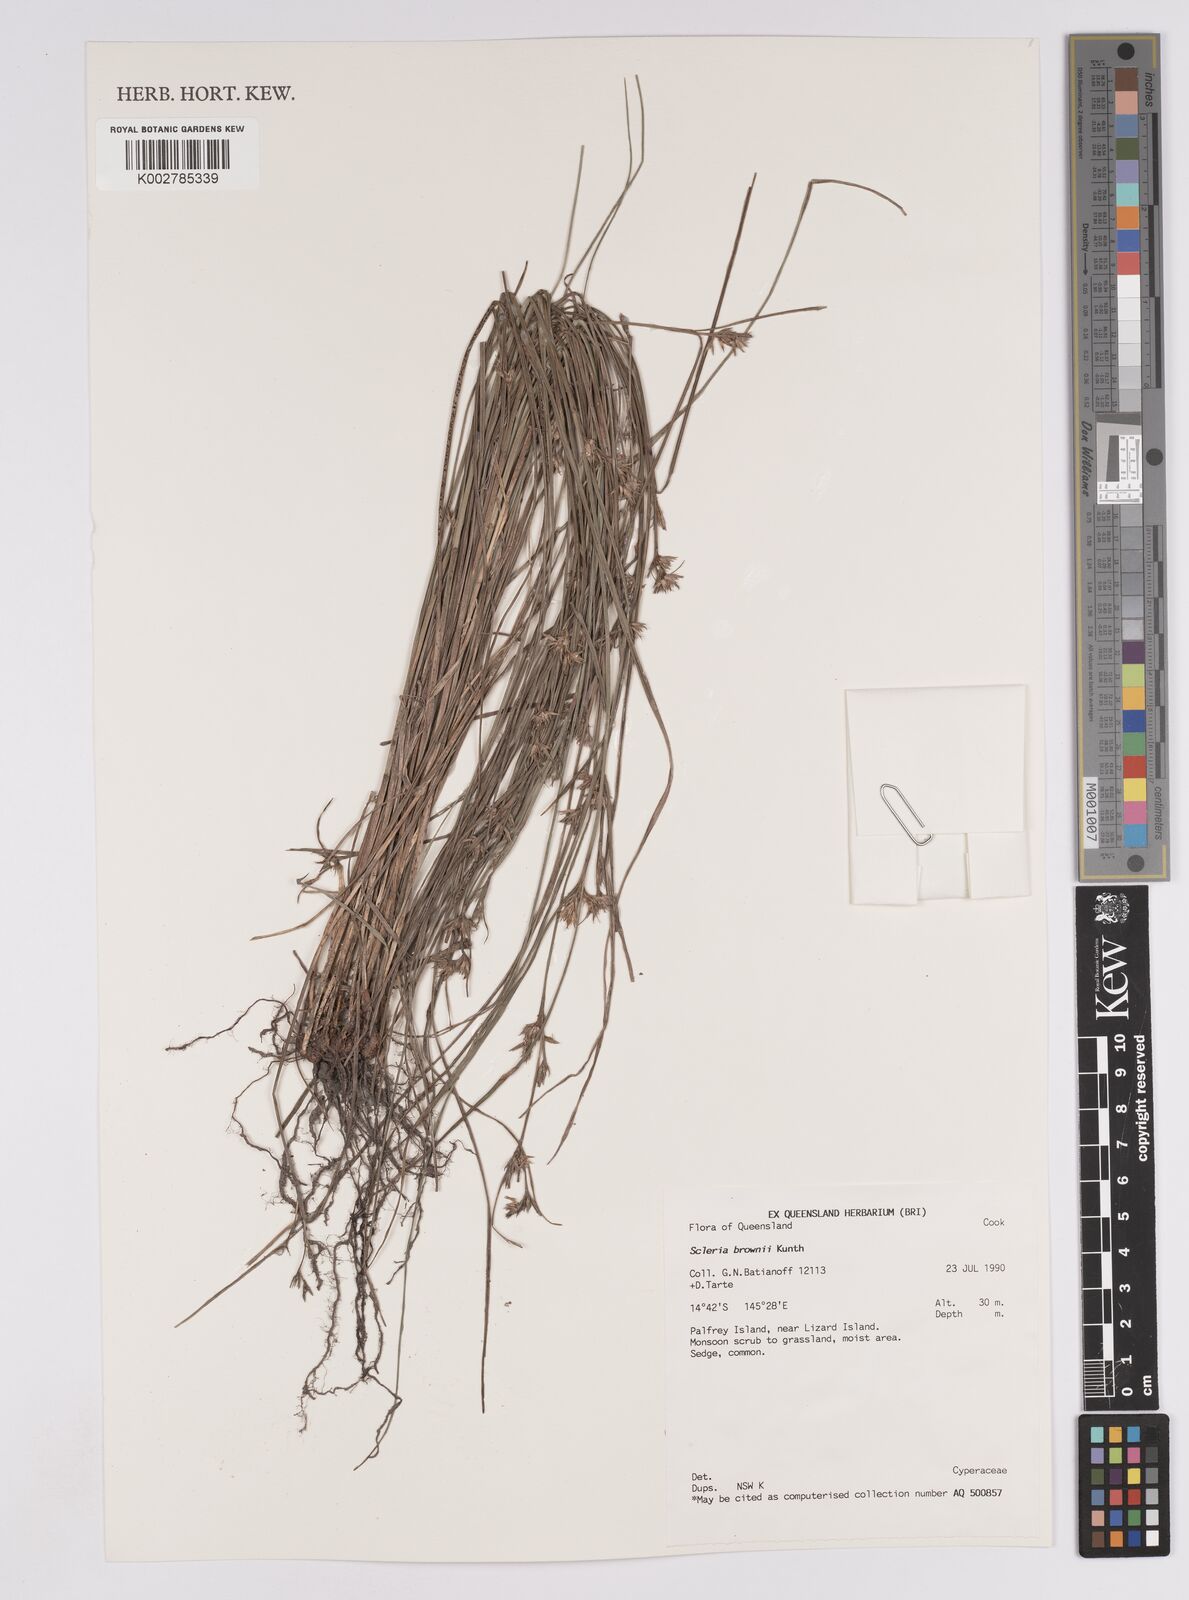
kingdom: Plantae
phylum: Tracheophyta
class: Liliopsida
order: Poales
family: Cyperaceae
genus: Scleria
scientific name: Scleria brownii
